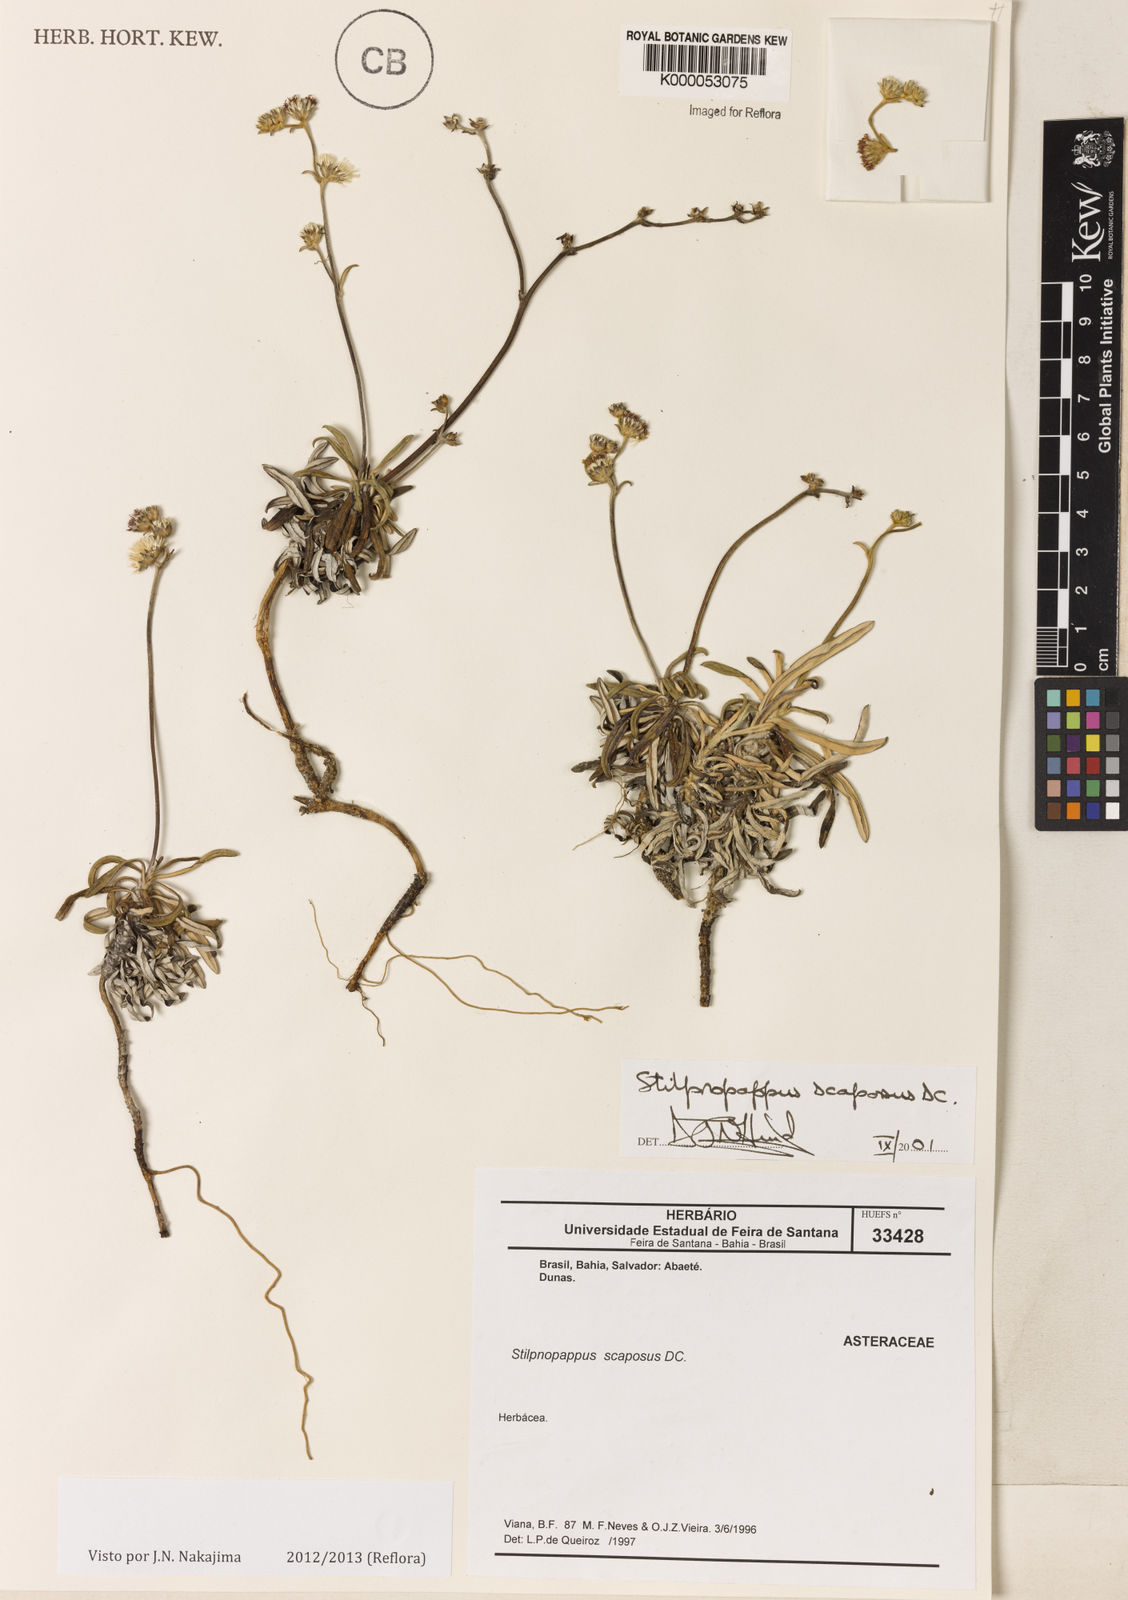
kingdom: Plantae
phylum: Tracheophyta
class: Magnoliopsida
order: Asterales
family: Asteraceae
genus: Stilpnopappus
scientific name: Stilpnopappus scaposus
